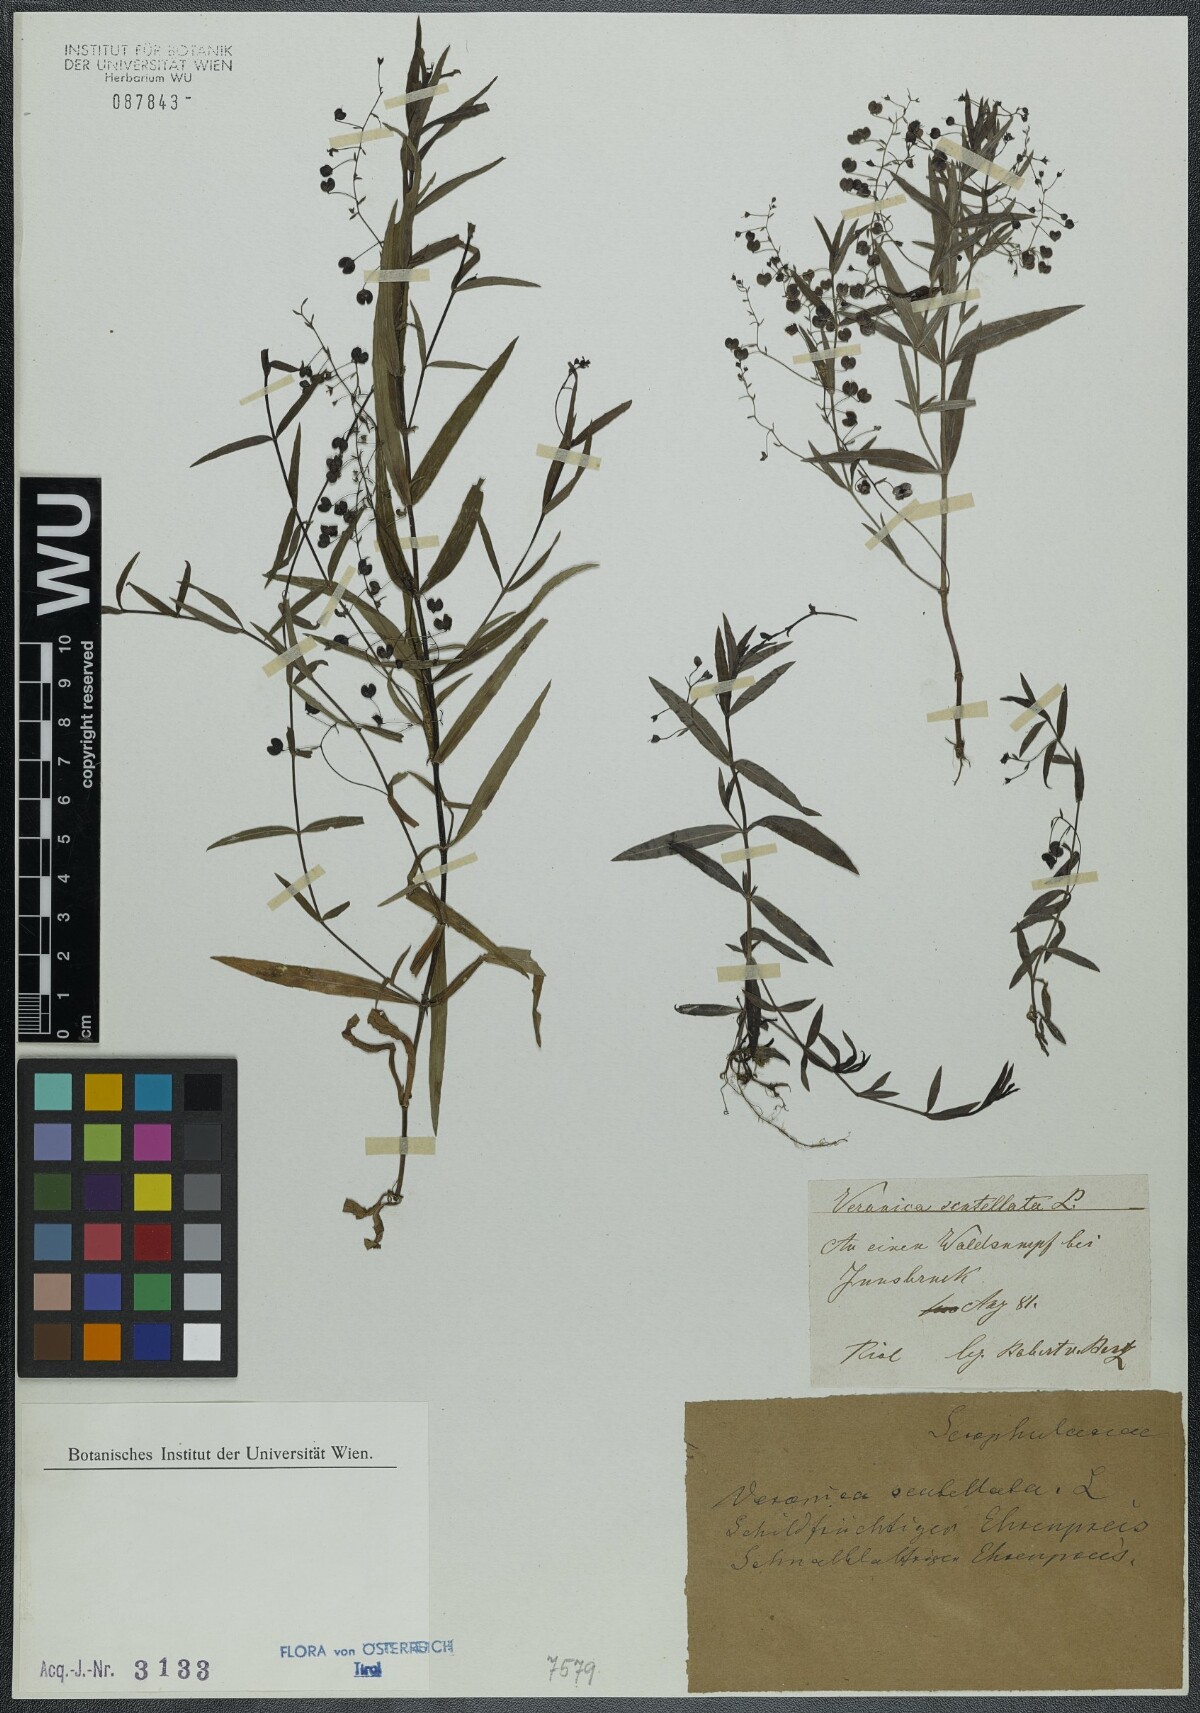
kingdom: Plantae
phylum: Tracheophyta
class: Magnoliopsida
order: Lamiales
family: Plantaginaceae
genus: Veronica
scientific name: Veronica scutellata
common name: Marsh speedwell
